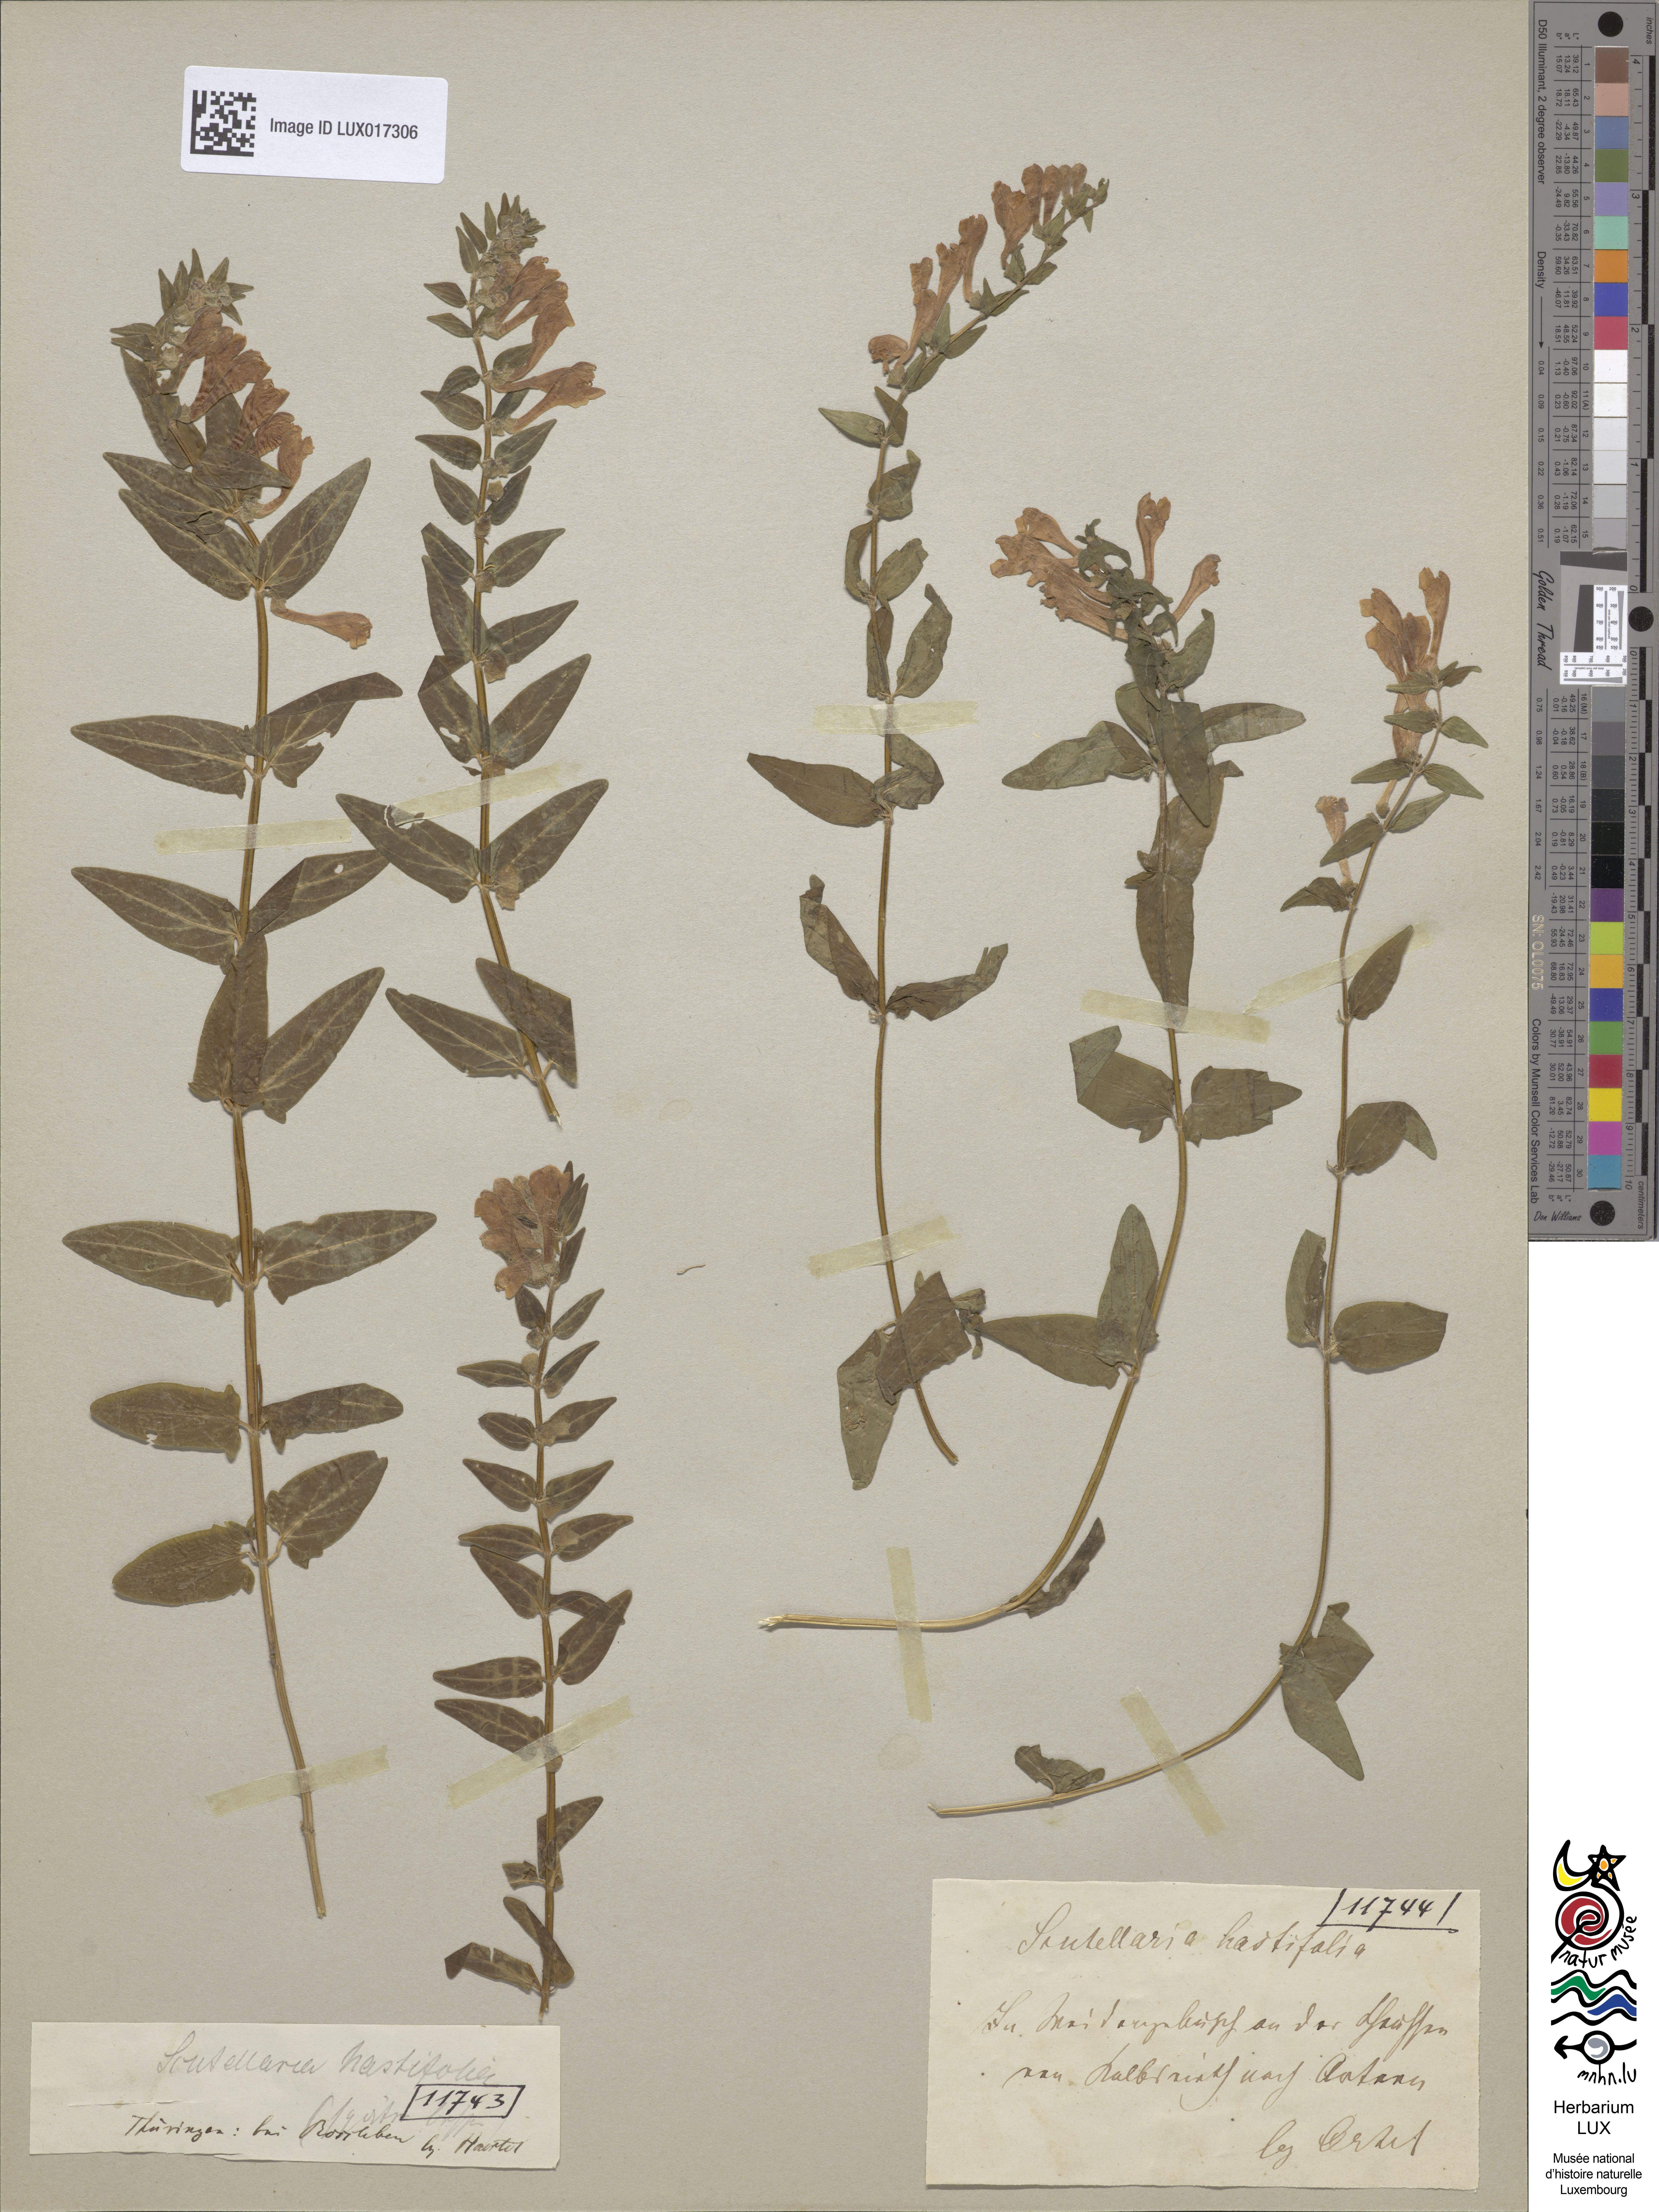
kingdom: Plantae
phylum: Tracheophyta
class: Magnoliopsida
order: Lamiales
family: Lamiaceae
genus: Scutellaria
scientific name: Scutellaria hastifolia
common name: Norfolk skullcap
